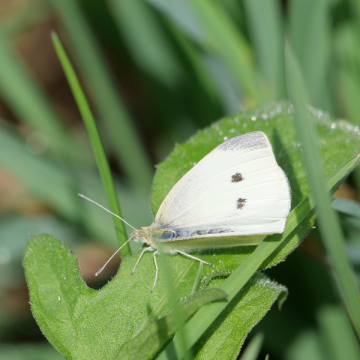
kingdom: Animalia
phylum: Arthropoda
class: Insecta
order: Lepidoptera
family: Pieridae
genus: Pieris
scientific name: Pieris rapae
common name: Cabbage White
